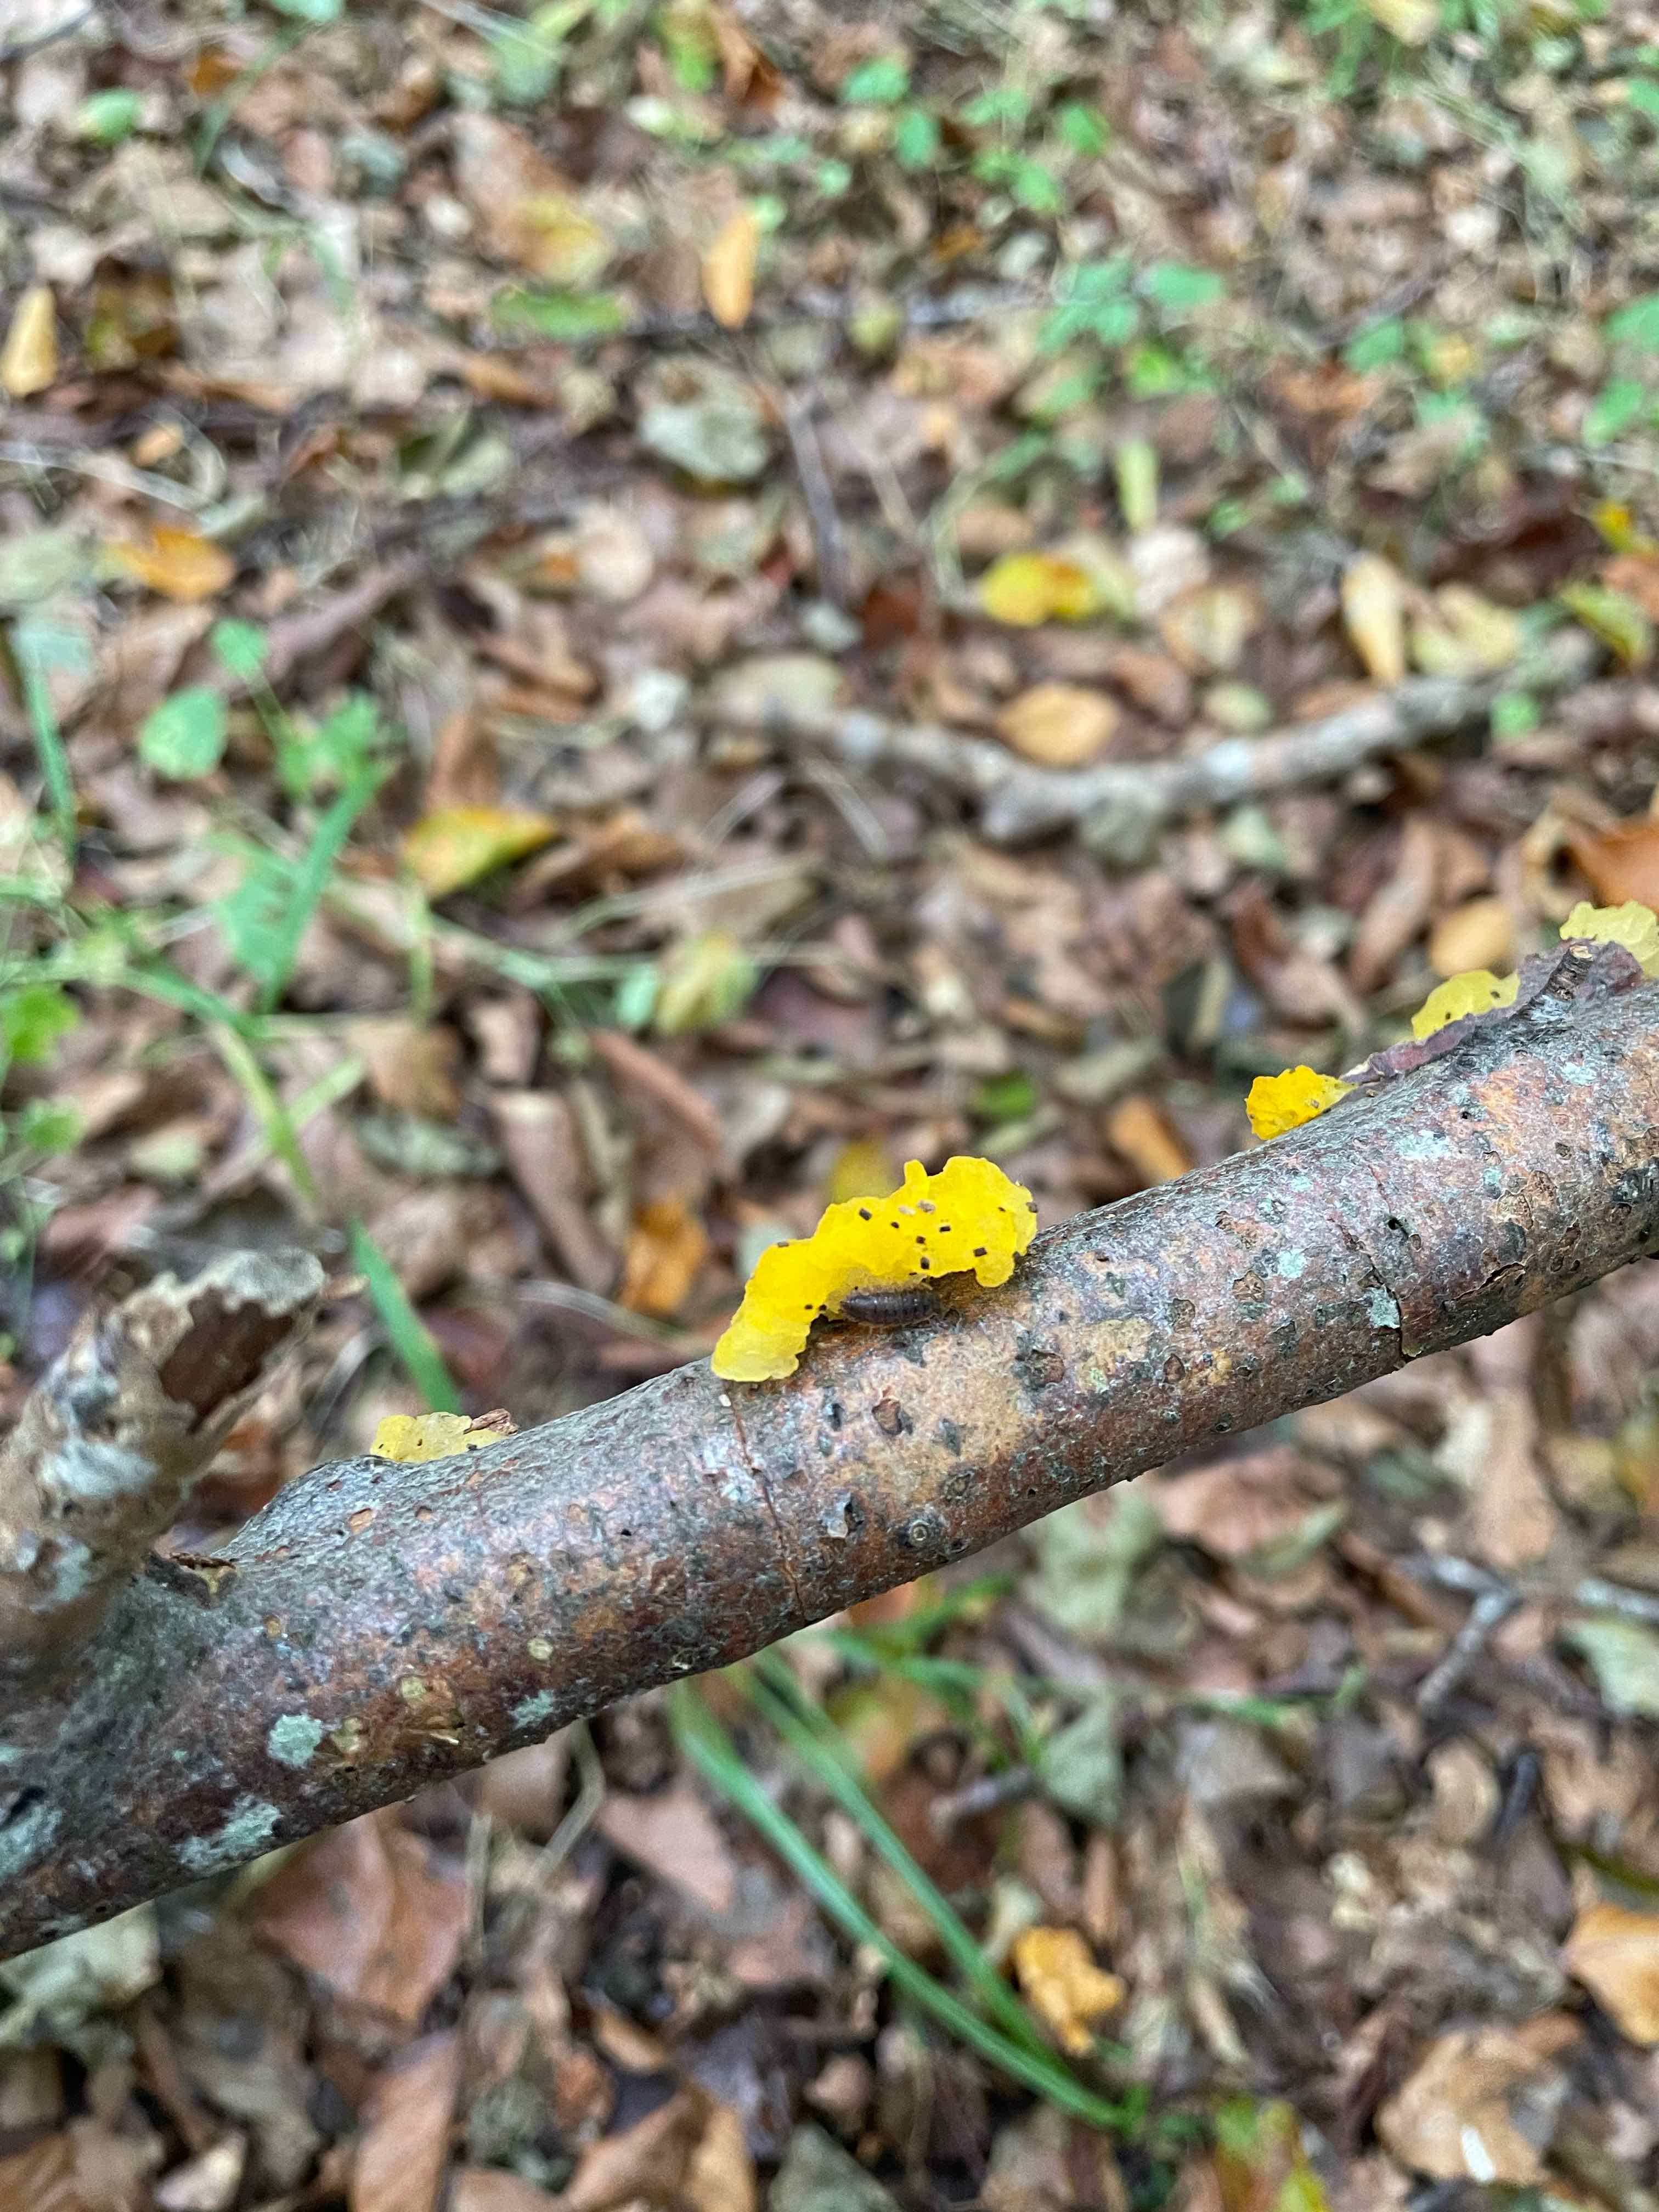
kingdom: Fungi
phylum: Basidiomycota
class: Tremellomycetes
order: Tremellales
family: Tremellaceae
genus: Tremella
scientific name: Tremella mesenterica
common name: gul bævresvamp
